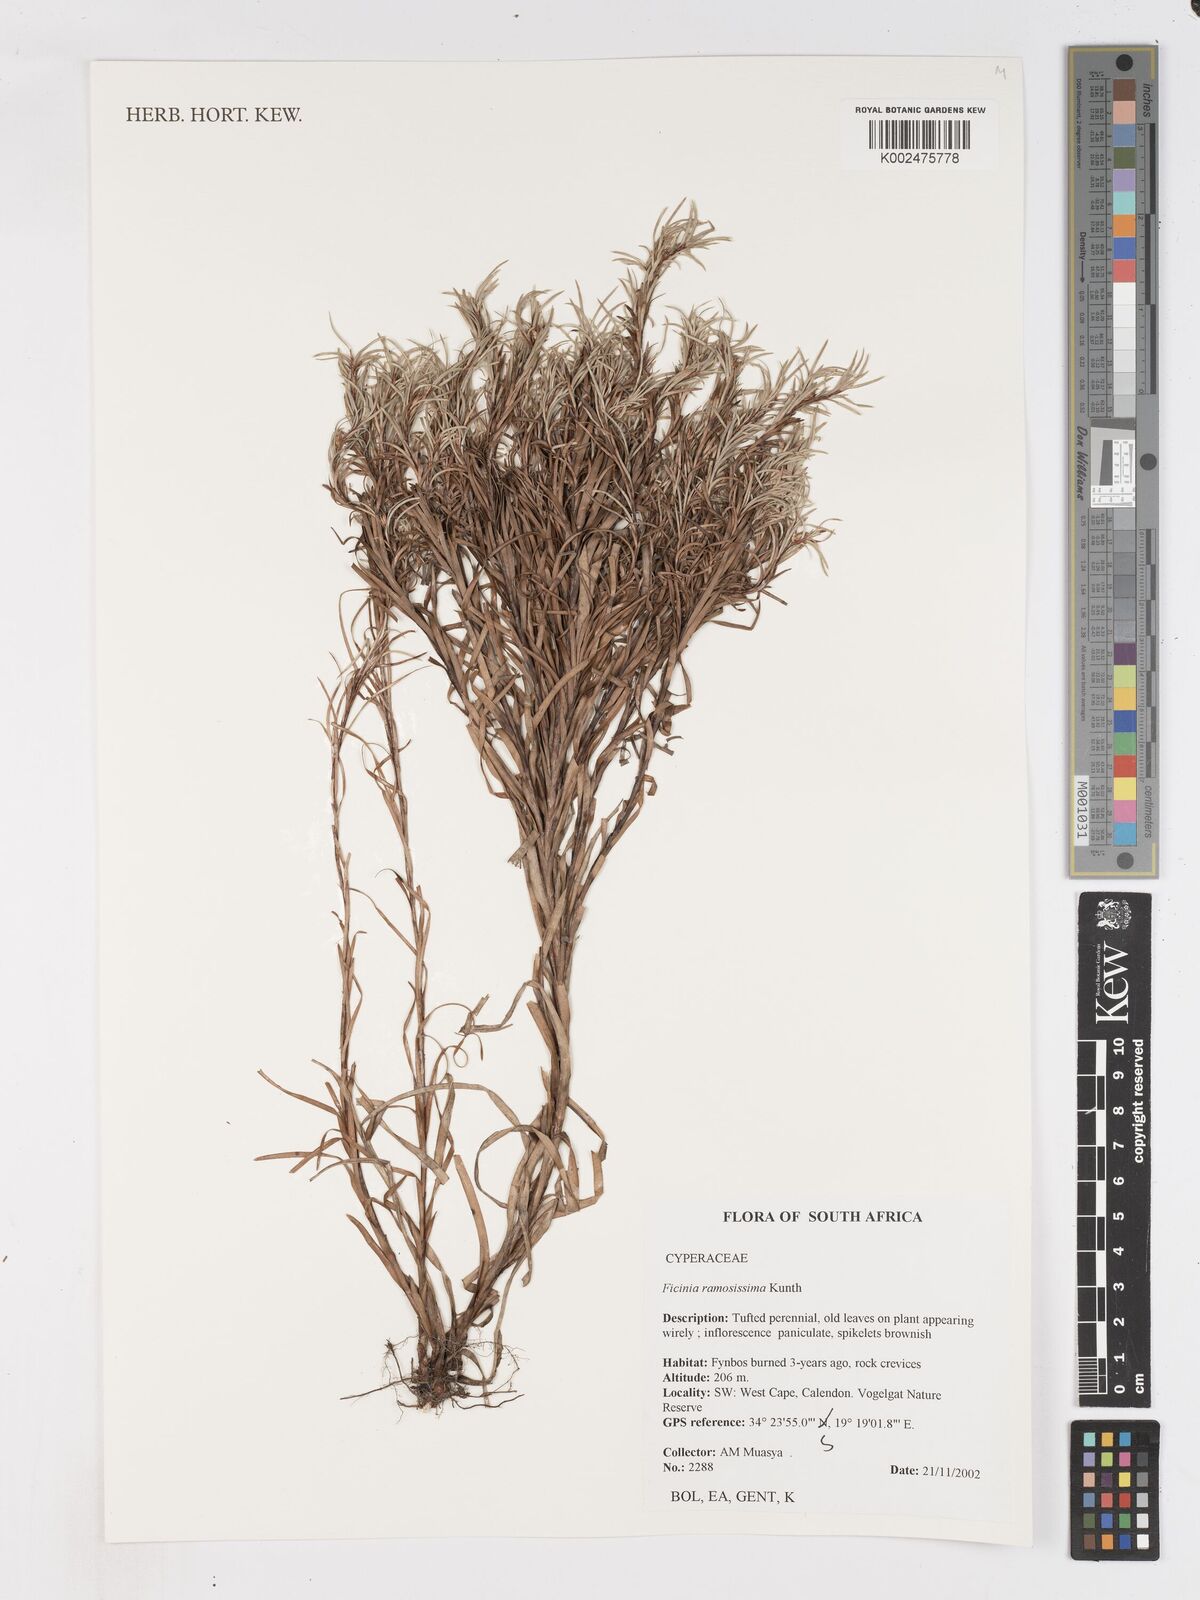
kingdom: Plantae
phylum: Tracheophyta
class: Liliopsida
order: Poales
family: Cyperaceae
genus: Ficinia
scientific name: Ficinia ramosissima
